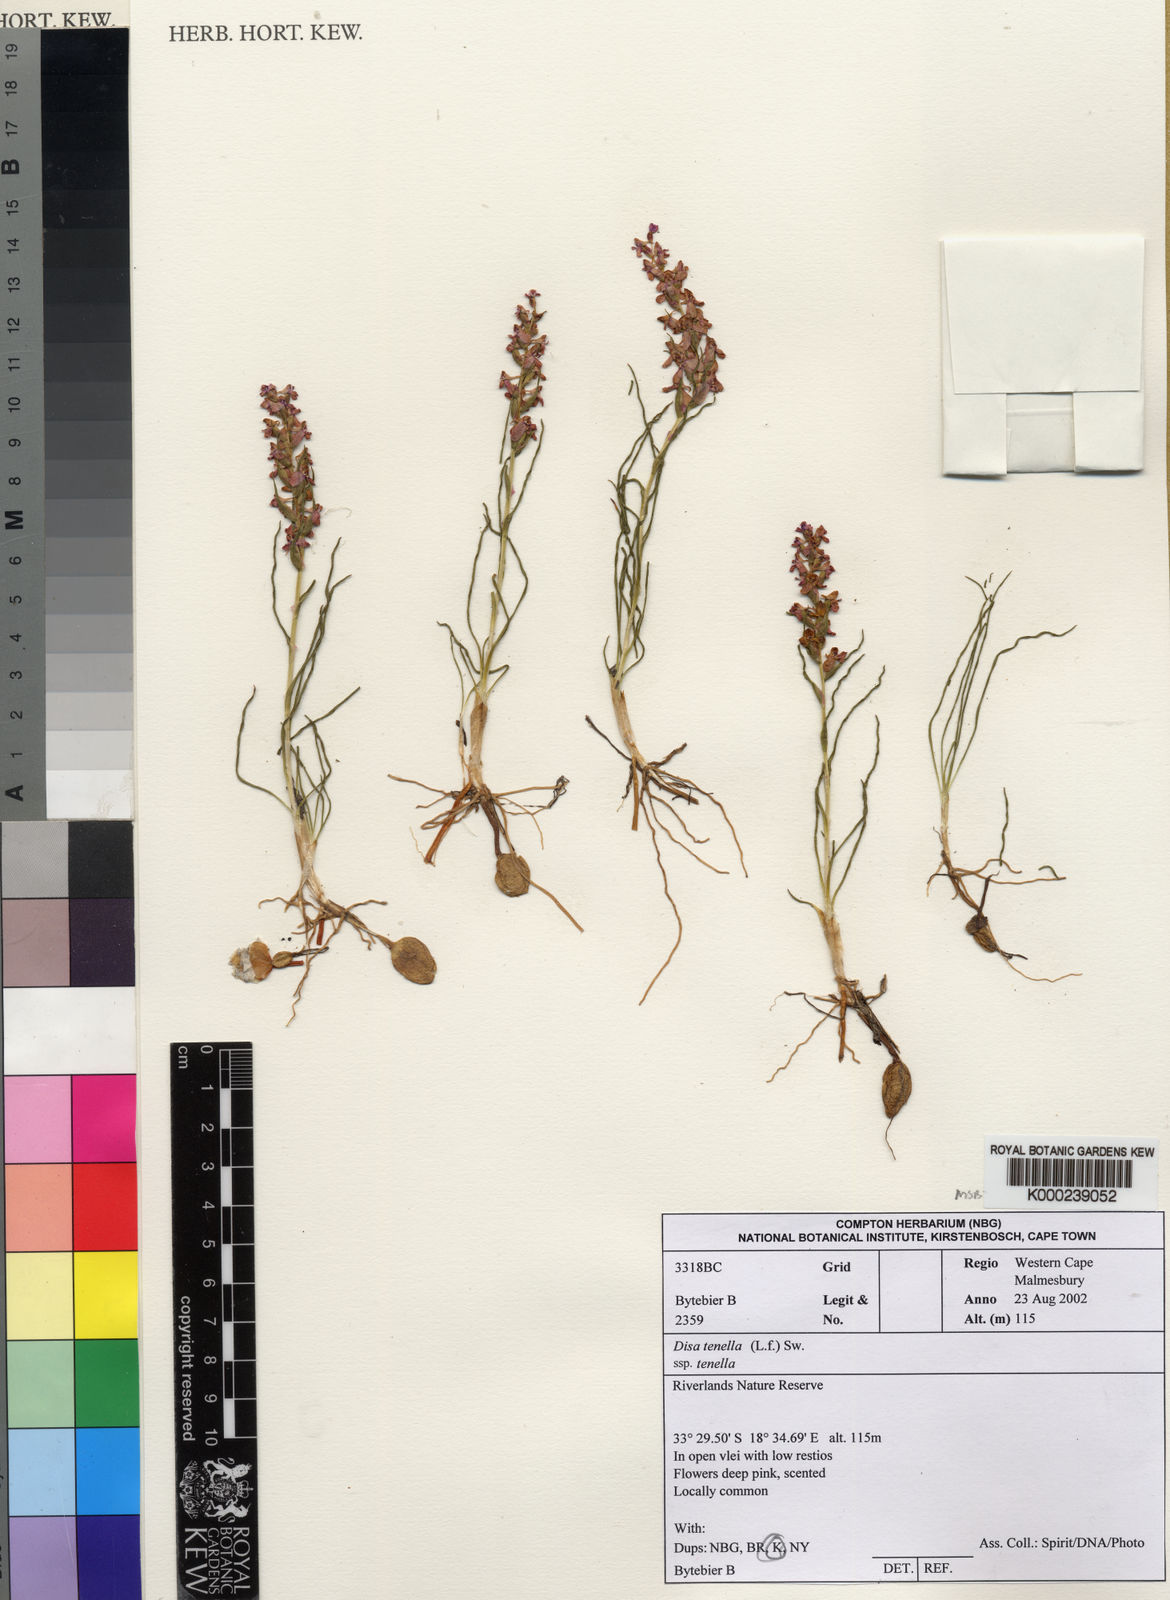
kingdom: Plantae
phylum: Tracheophyta
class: Liliopsida
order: Asparagales
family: Orchidaceae
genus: Disa
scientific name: Disa tenella
